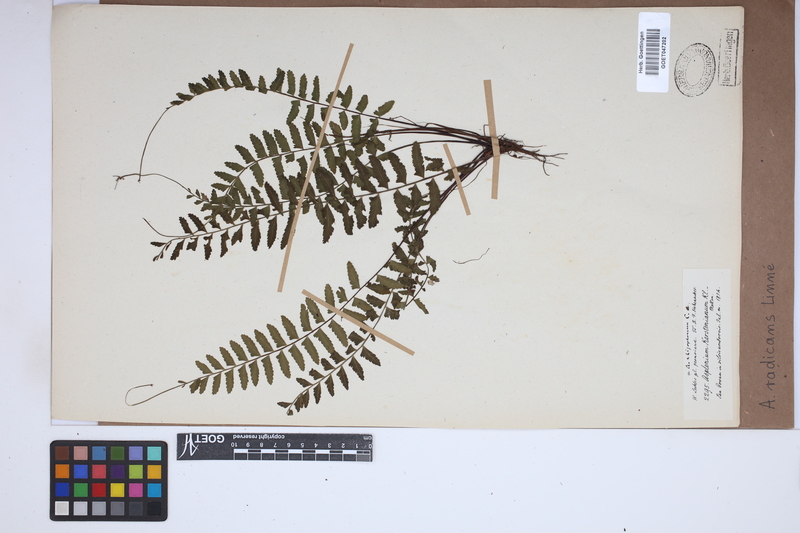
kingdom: Plantae
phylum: Tracheophyta
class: Polypodiopsida
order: Polypodiales
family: Aspleniaceae
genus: Asplenium
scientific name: Asplenium radicans
